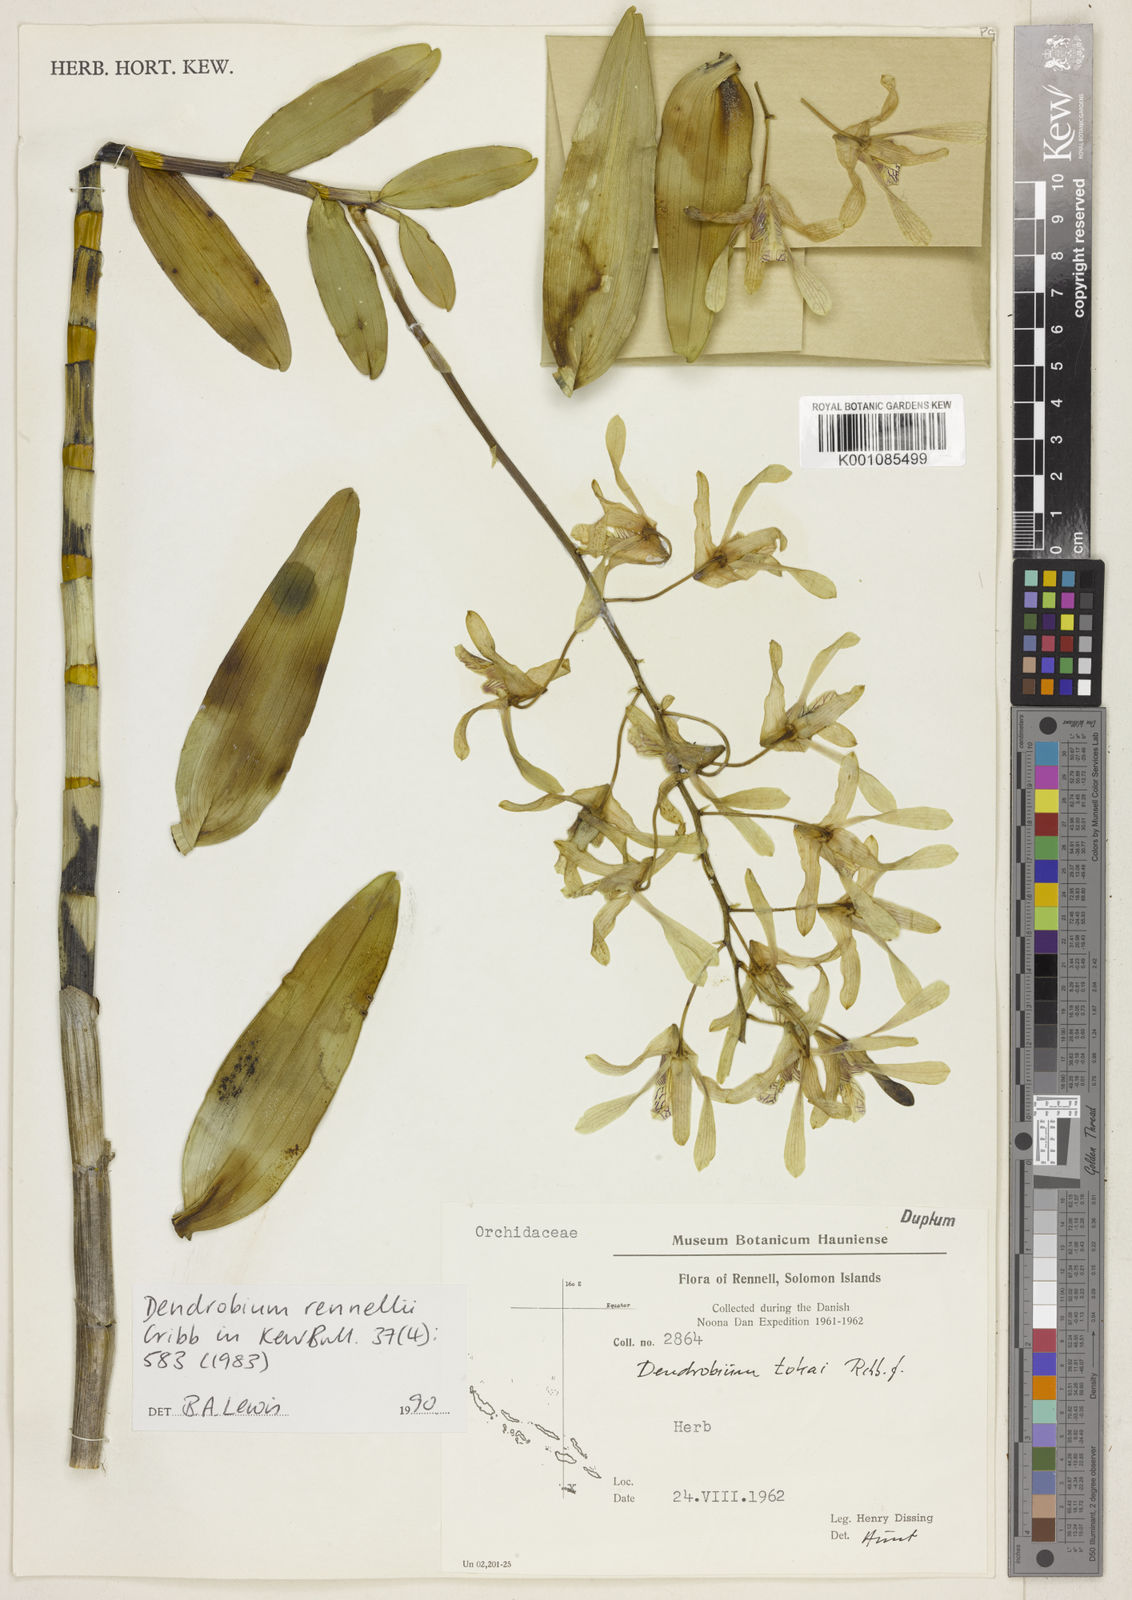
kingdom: Plantae
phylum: Tracheophyta
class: Liliopsida
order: Asparagales
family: Orchidaceae
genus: Dendrobium
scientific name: Dendrobium rennellii
